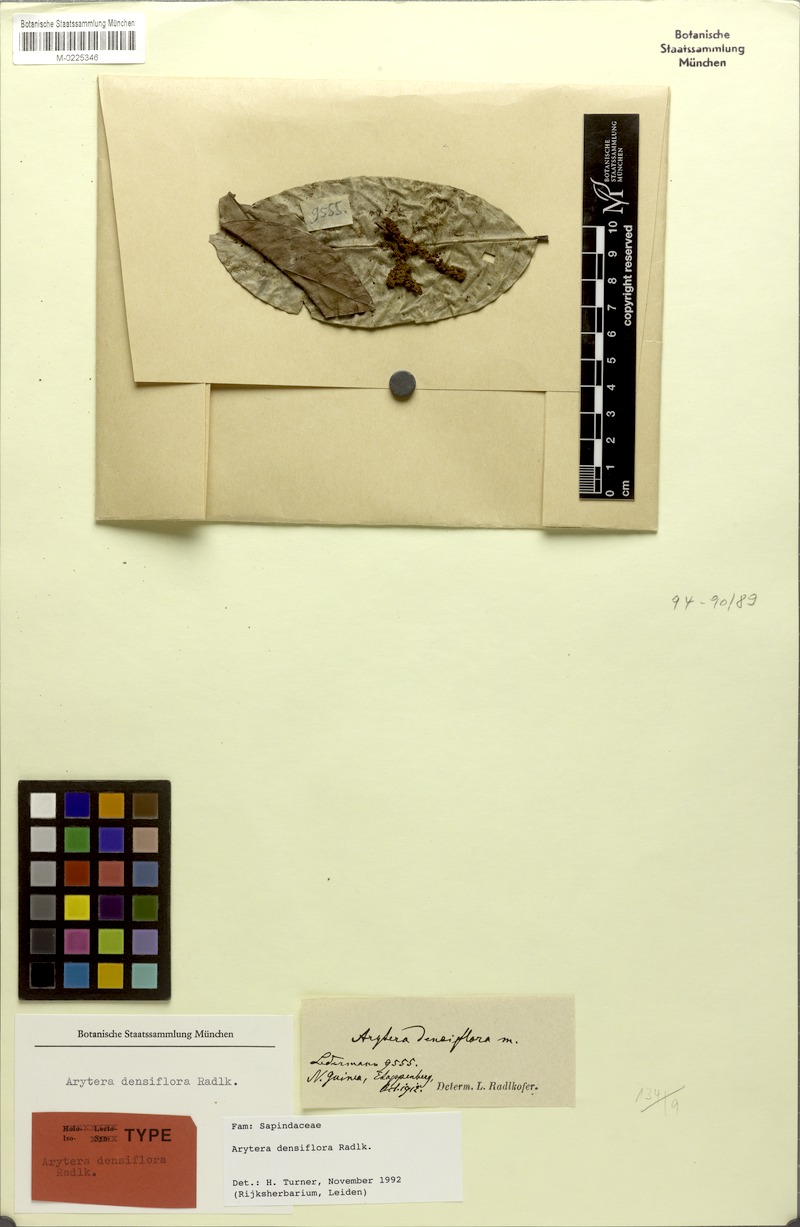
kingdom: Plantae
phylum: Tracheophyta
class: Magnoliopsida
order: Sapindales
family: Sapindaceae
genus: Arytera
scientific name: Arytera densiflora
